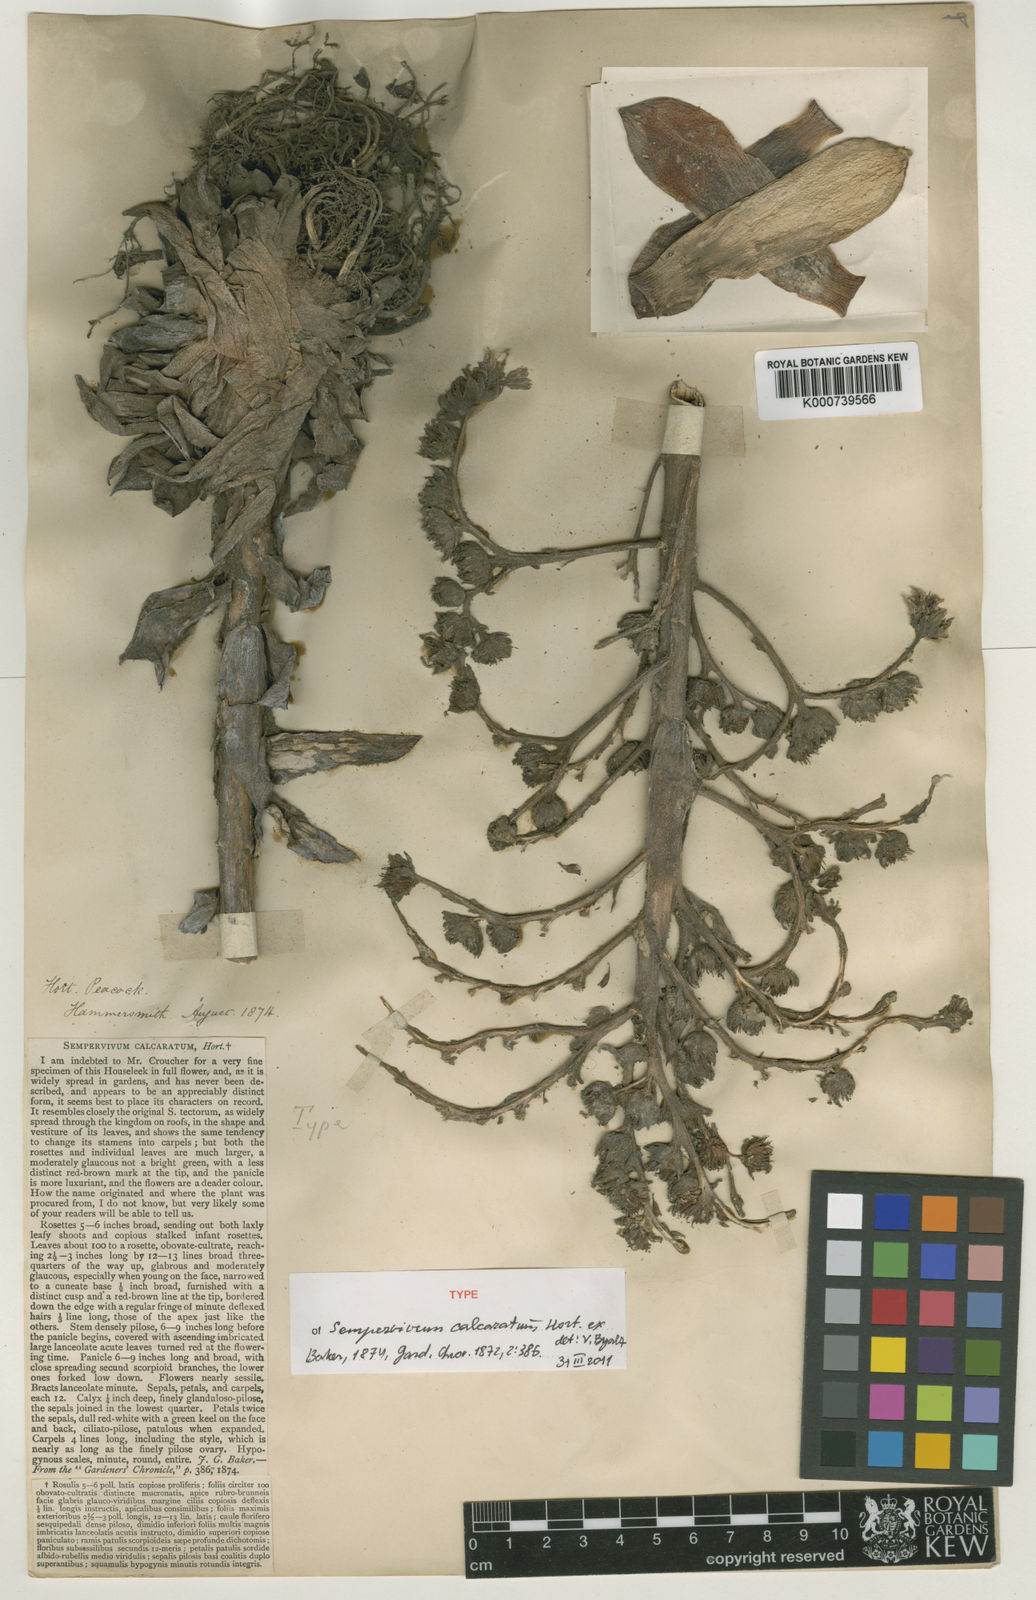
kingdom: Plantae
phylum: Tracheophyta
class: Magnoliopsida
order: Saxifragales
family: Crassulaceae
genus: Sempervivum
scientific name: Sempervivum comollii
